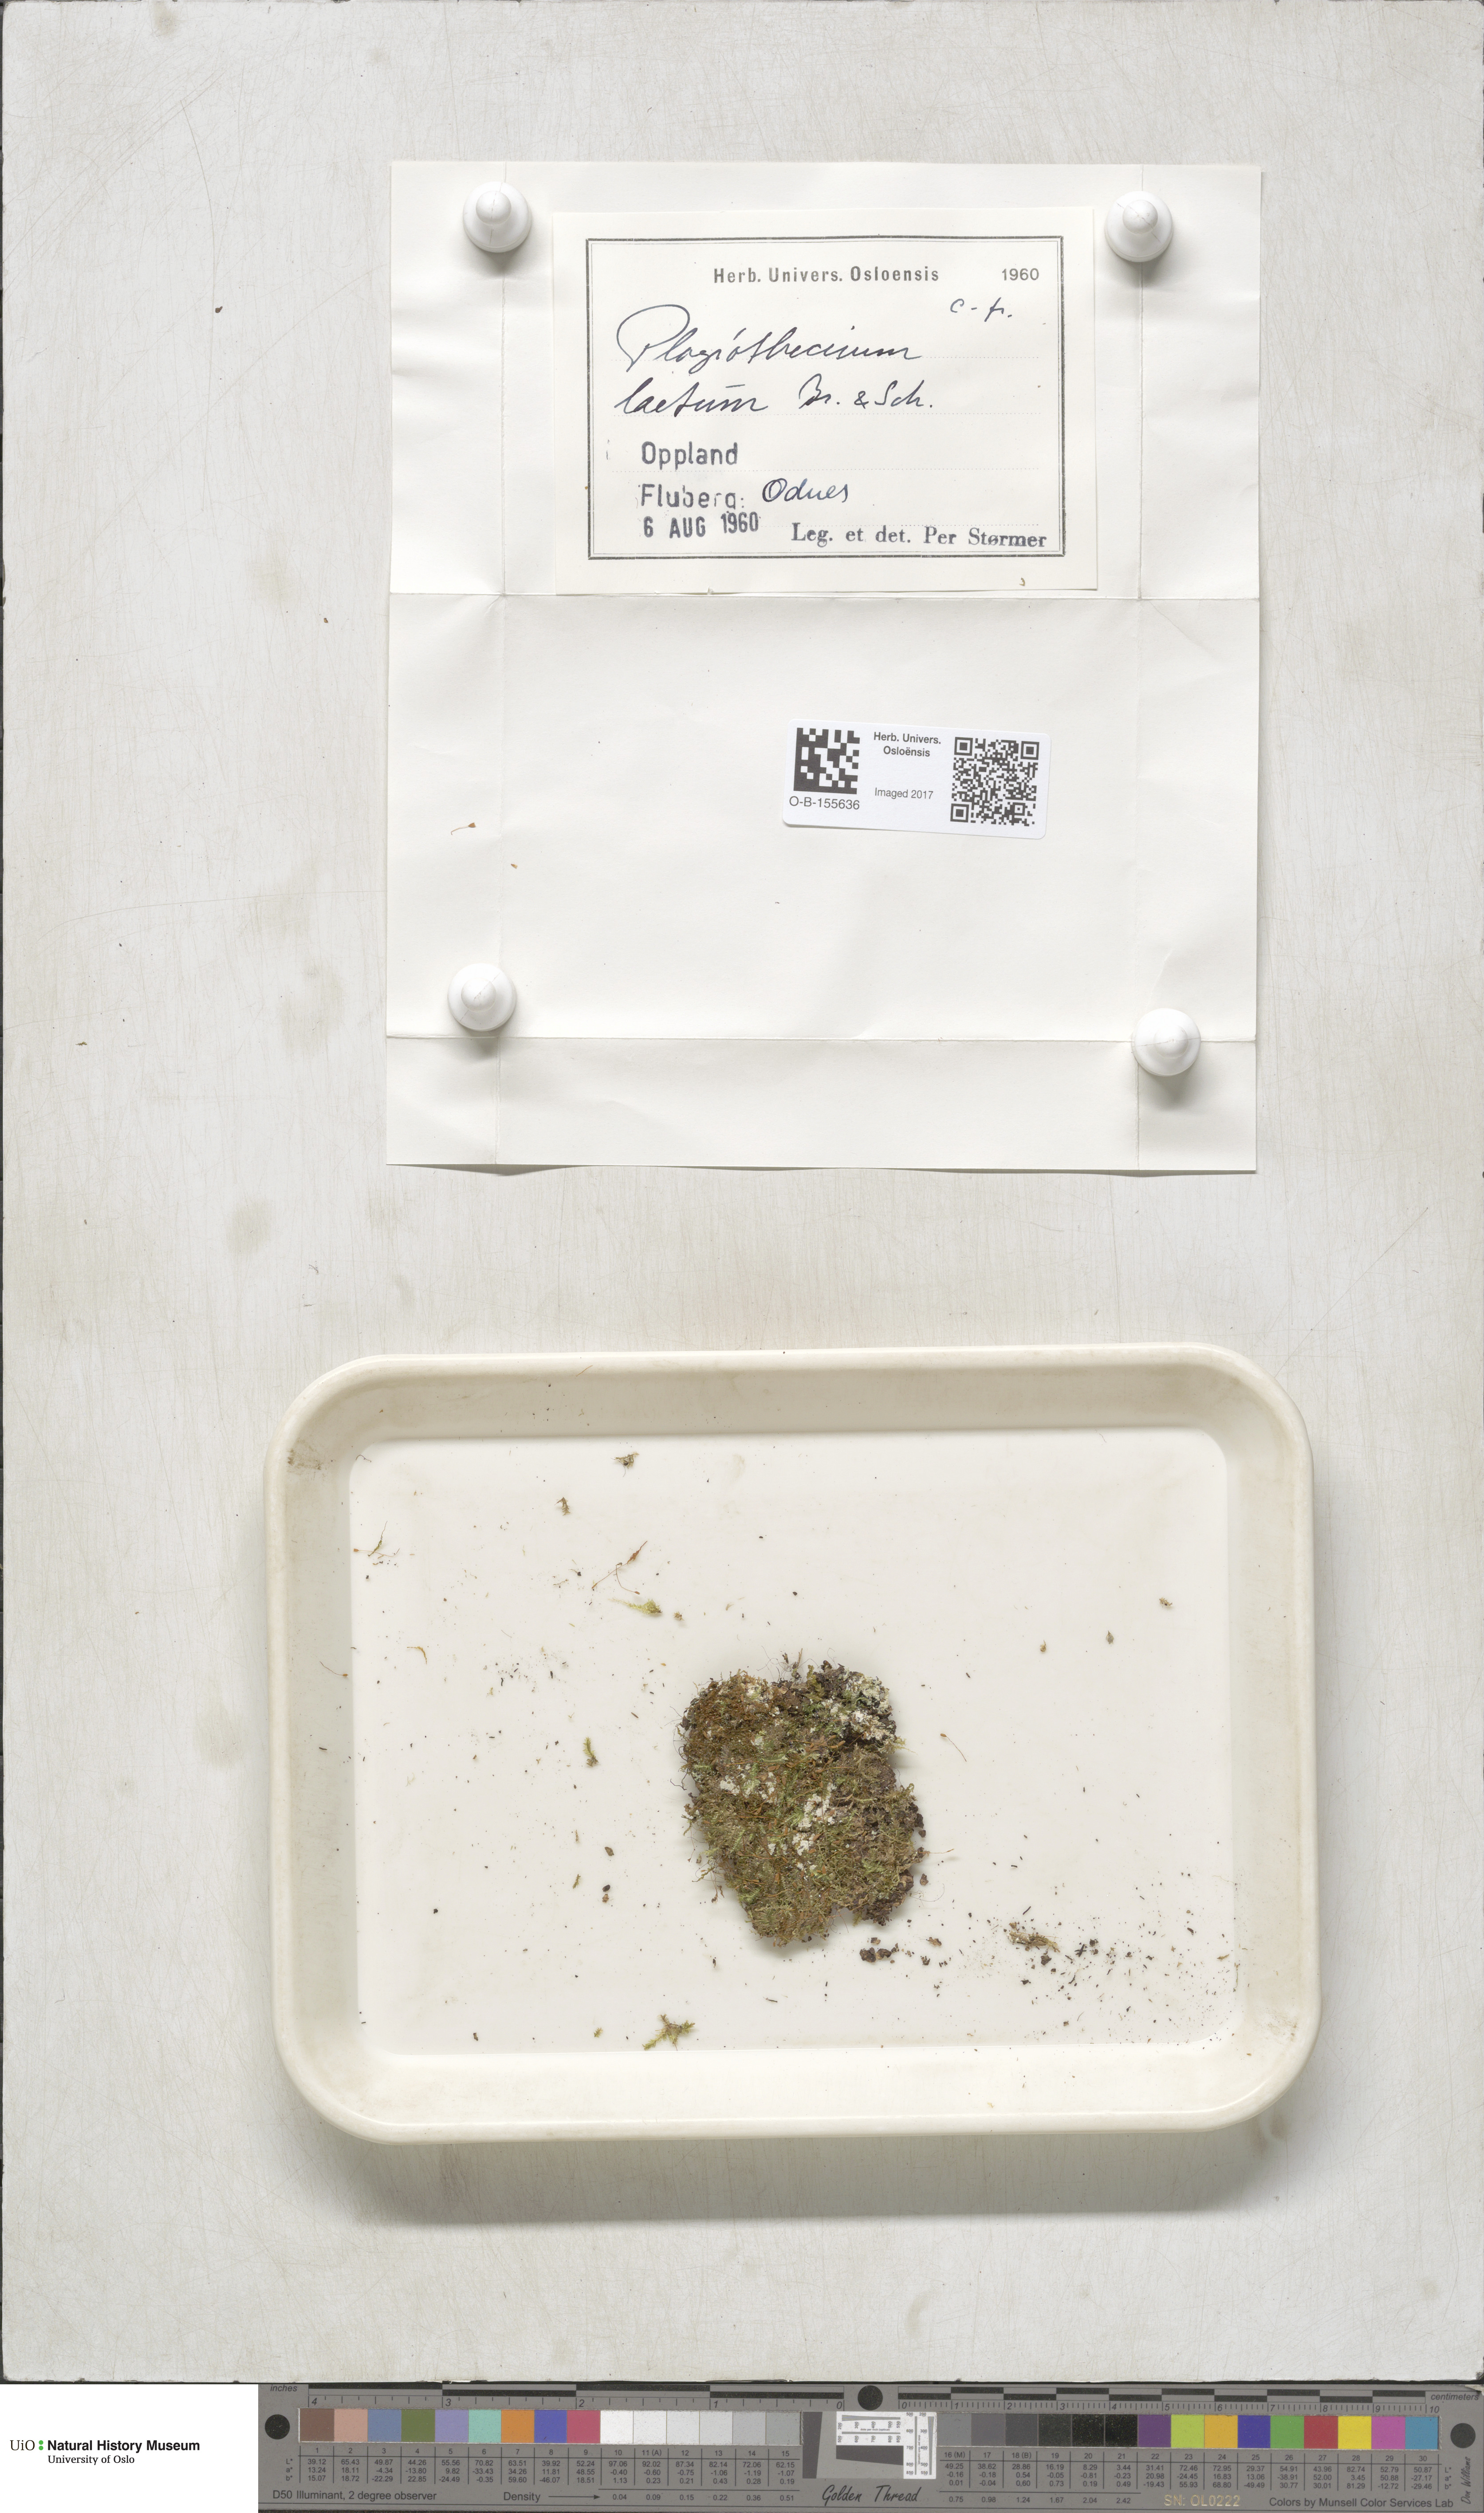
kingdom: Plantae
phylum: Bryophyta
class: Bryopsida
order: Hypnales
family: Plagiotheciaceae
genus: Plagiothecium
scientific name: Plagiothecium laetum
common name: Bright silk moss
